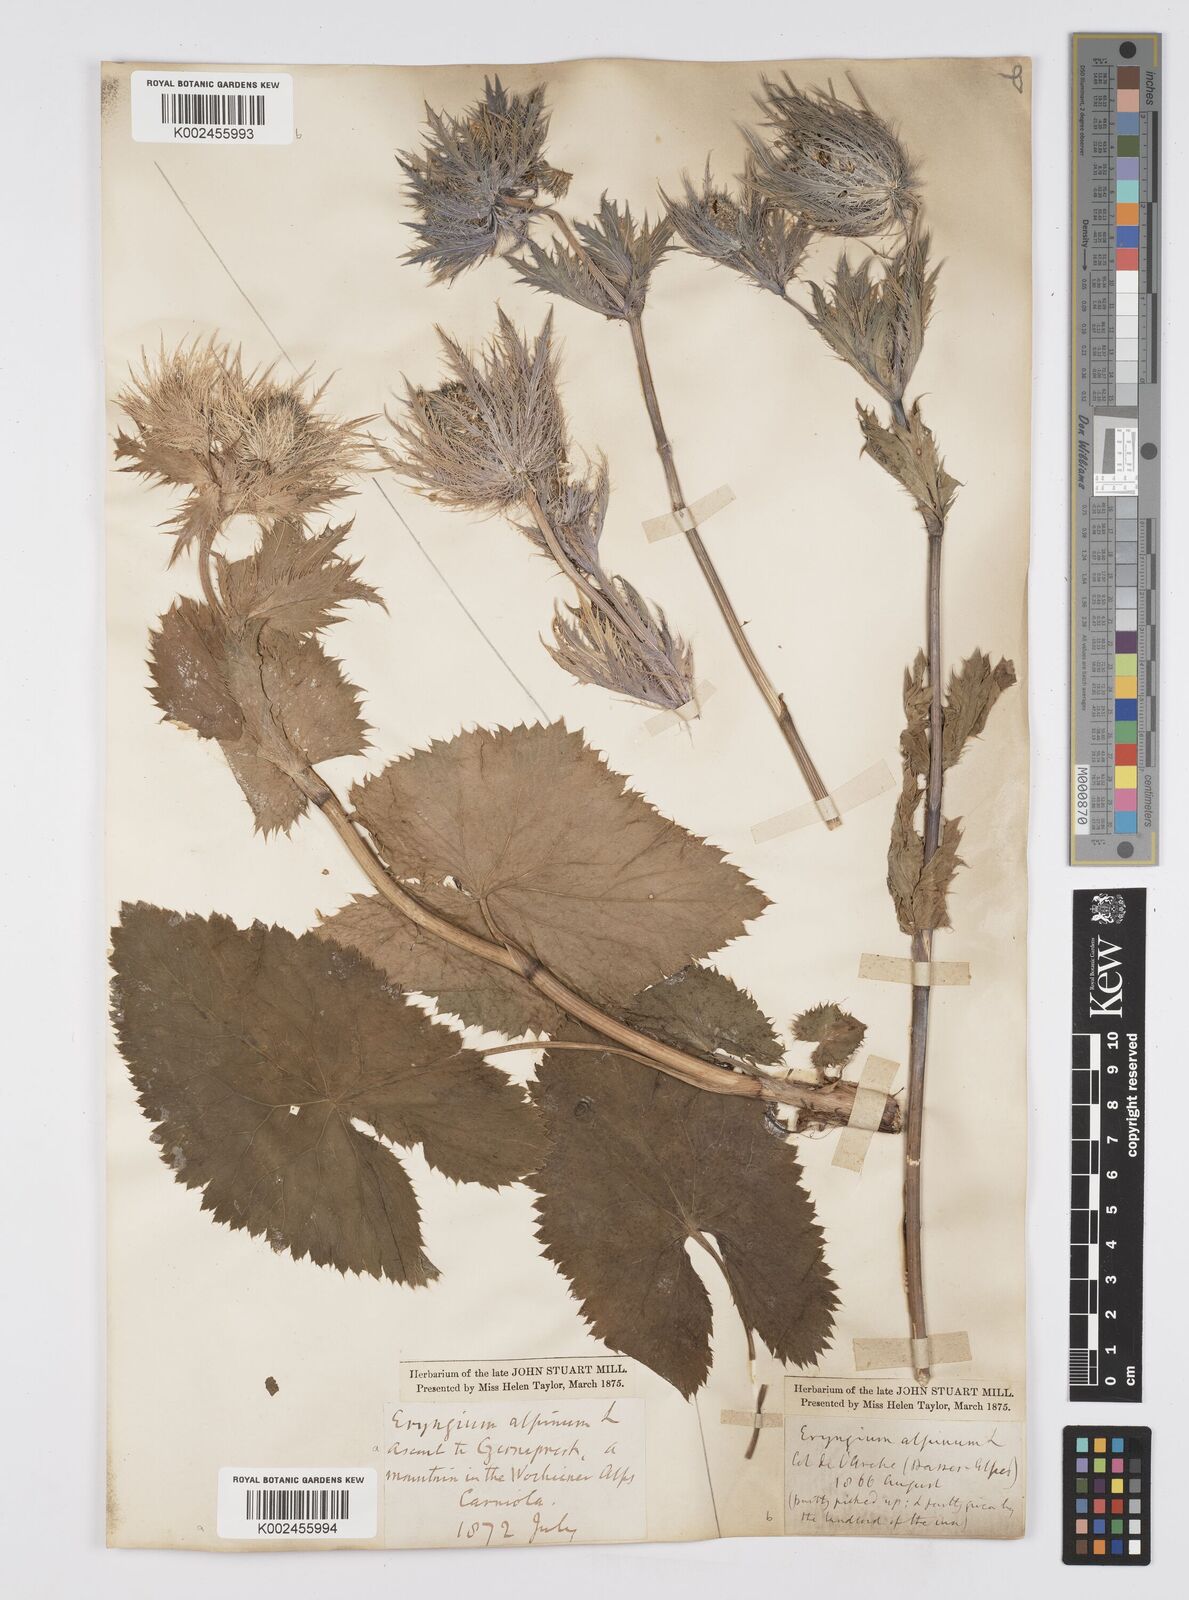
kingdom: Plantae
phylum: Tracheophyta
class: Magnoliopsida
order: Apiales
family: Apiaceae
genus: Eryngium
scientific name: Eryngium alpinum
